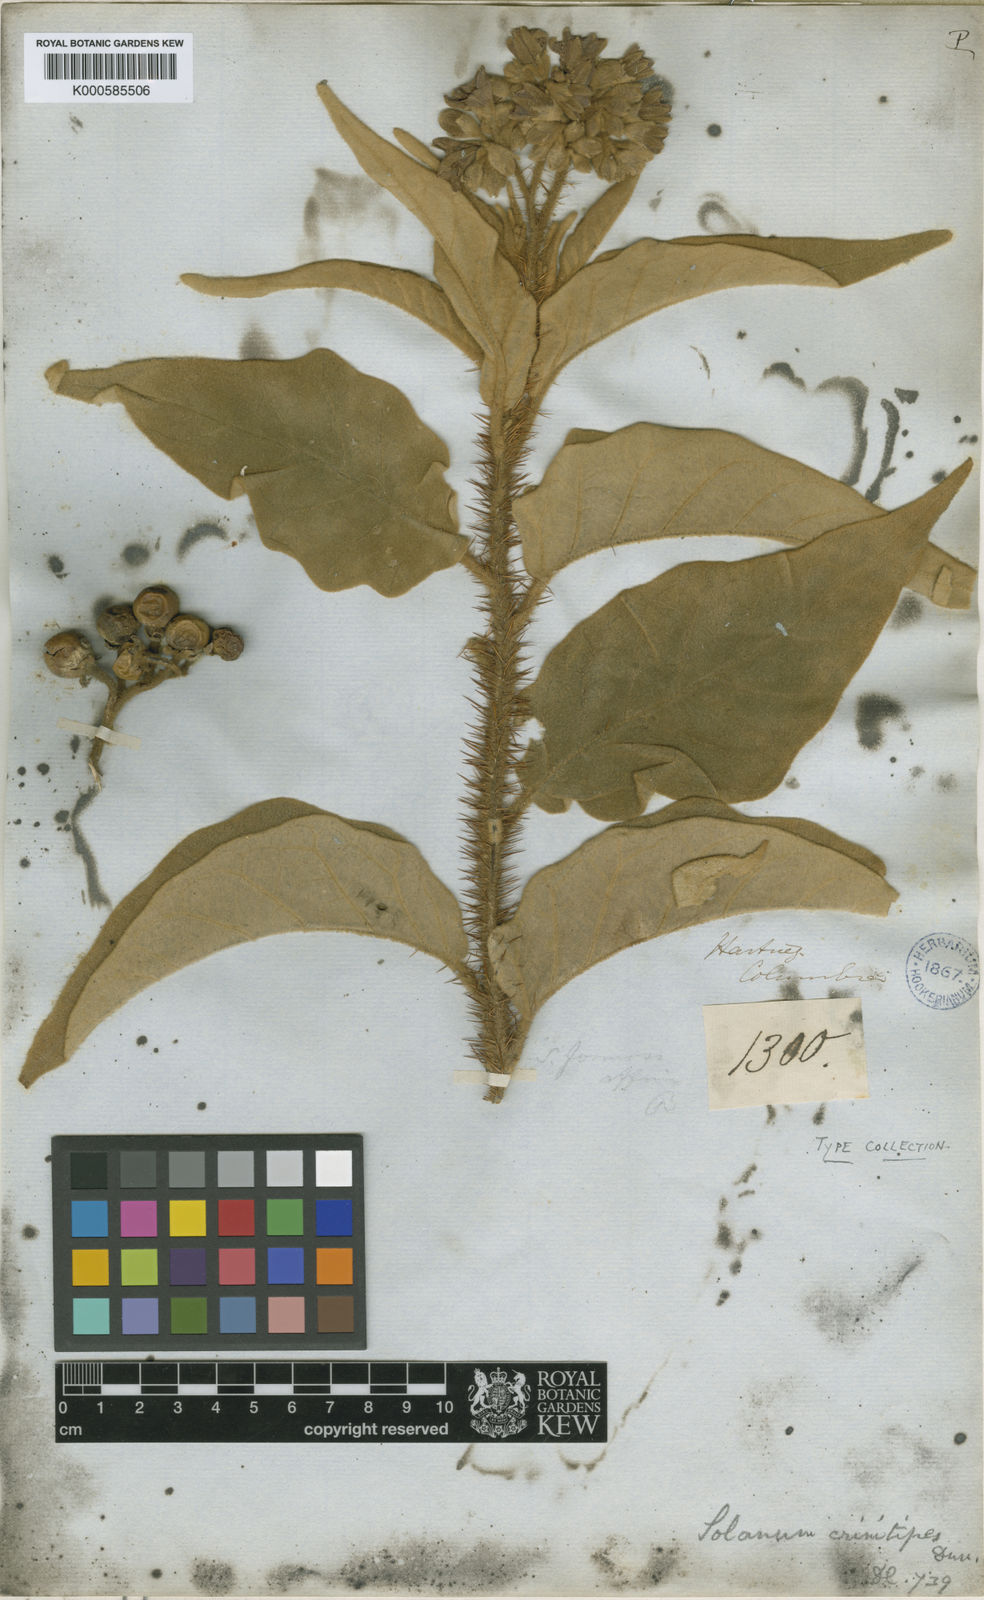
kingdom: Plantae
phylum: Tracheophyta
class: Magnoliopsida
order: Solanales
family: Solanaceae
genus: Solanum
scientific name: Solanum crinitipes
